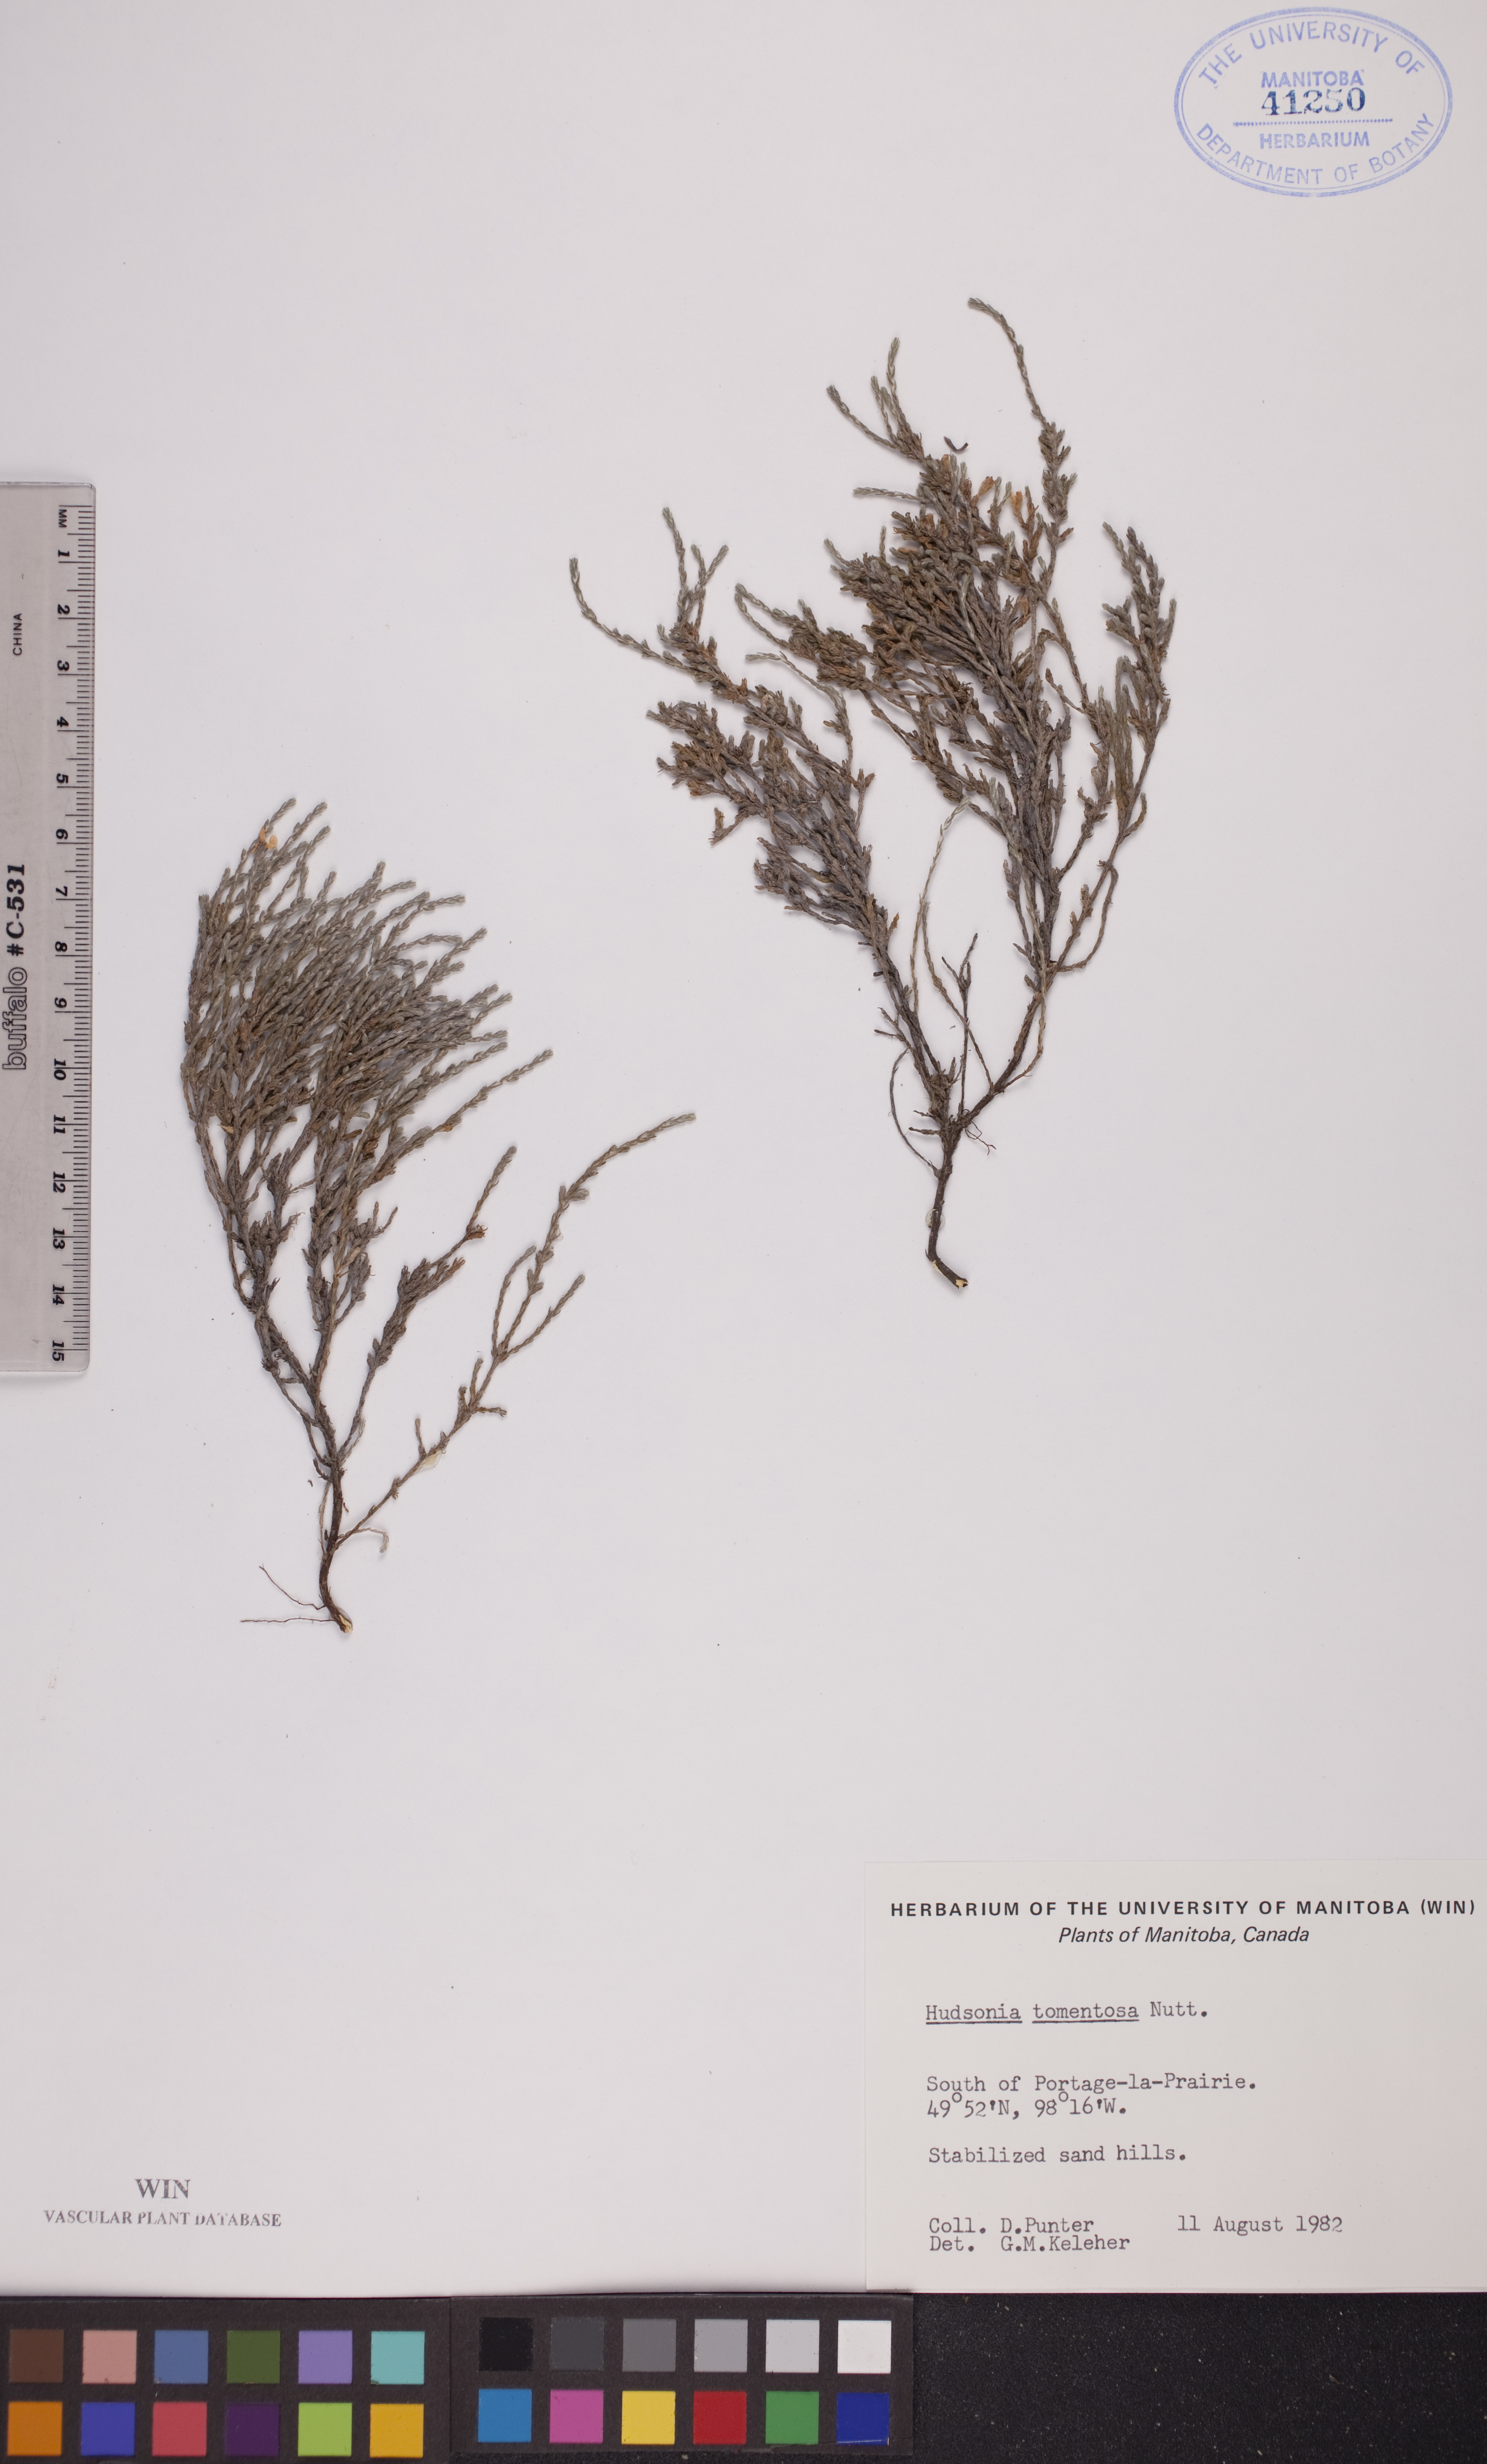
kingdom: Plantae
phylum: Tracheophyta
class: Magnoliopsida
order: Malvales
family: Cistaceae
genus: Hudsonia
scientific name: Hudsonia tomentosa
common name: Beach-heath
